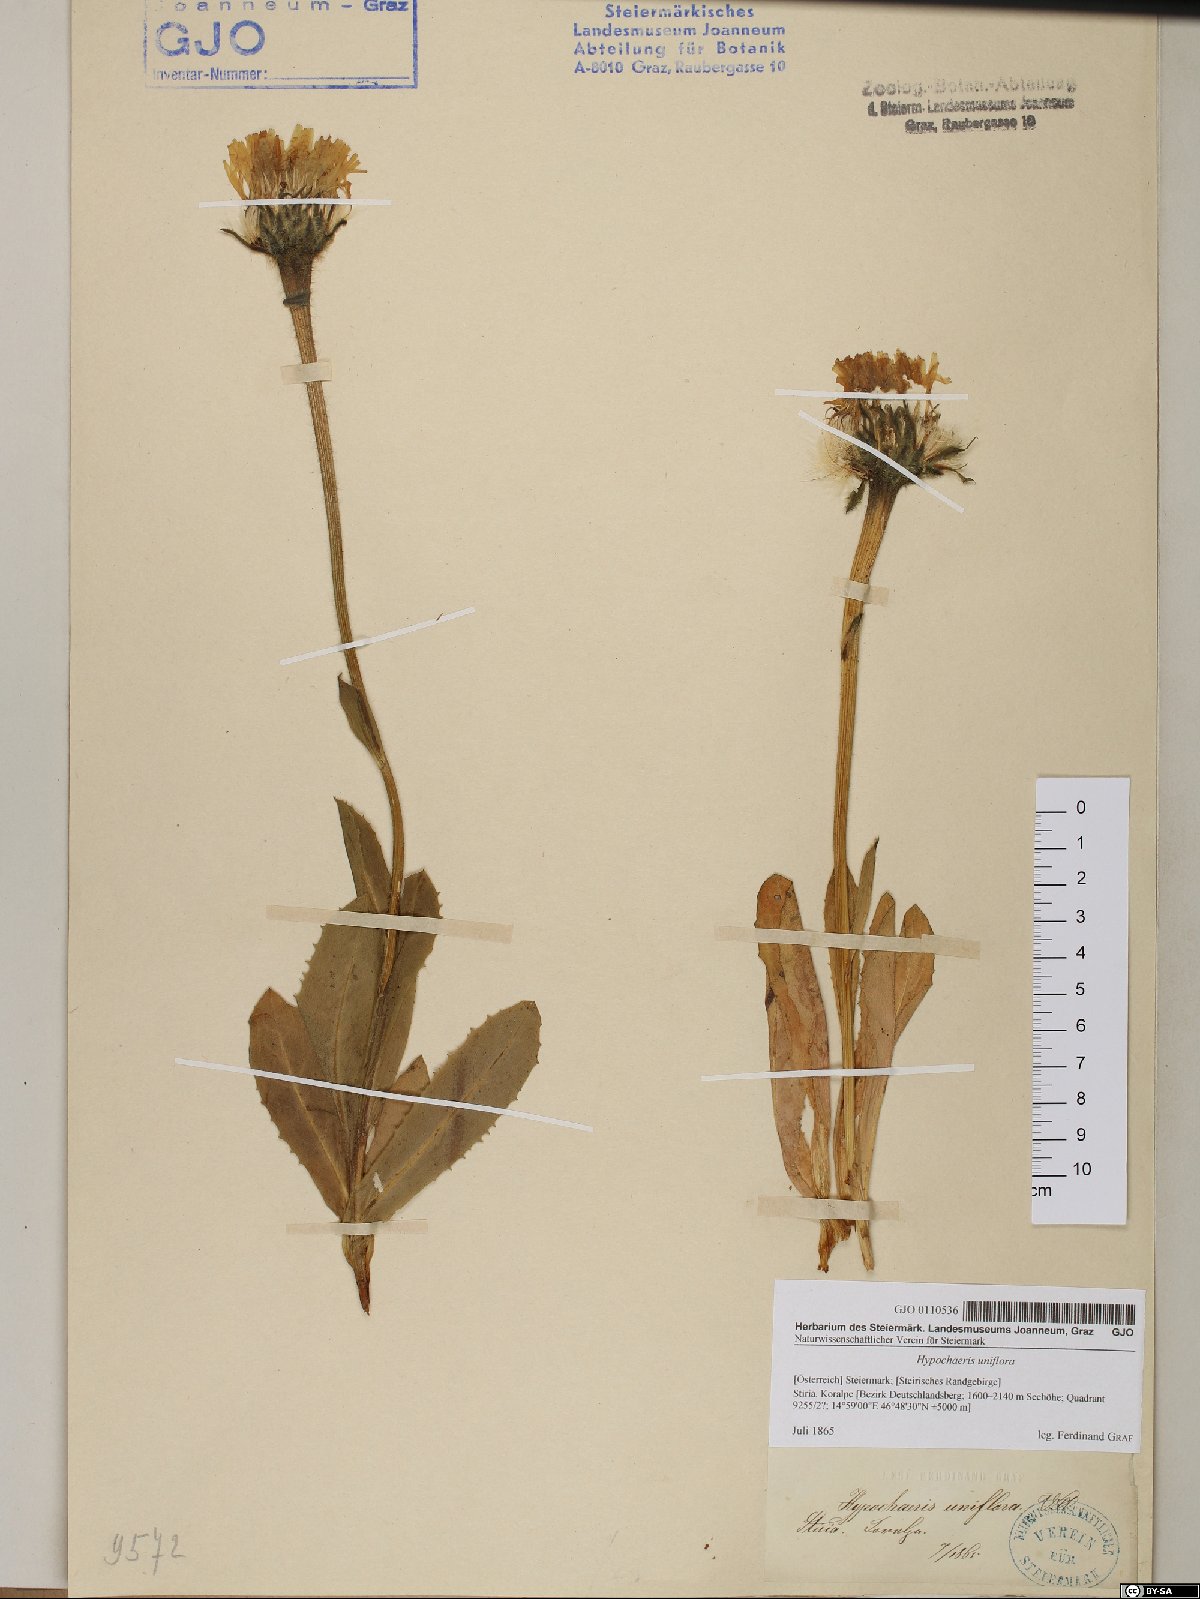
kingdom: Plantae
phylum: Tracheophyta
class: Magnoliopsida
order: Asterales
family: Asteraceae
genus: Trommsdorffia
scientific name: Trommsdorffia uniflora
